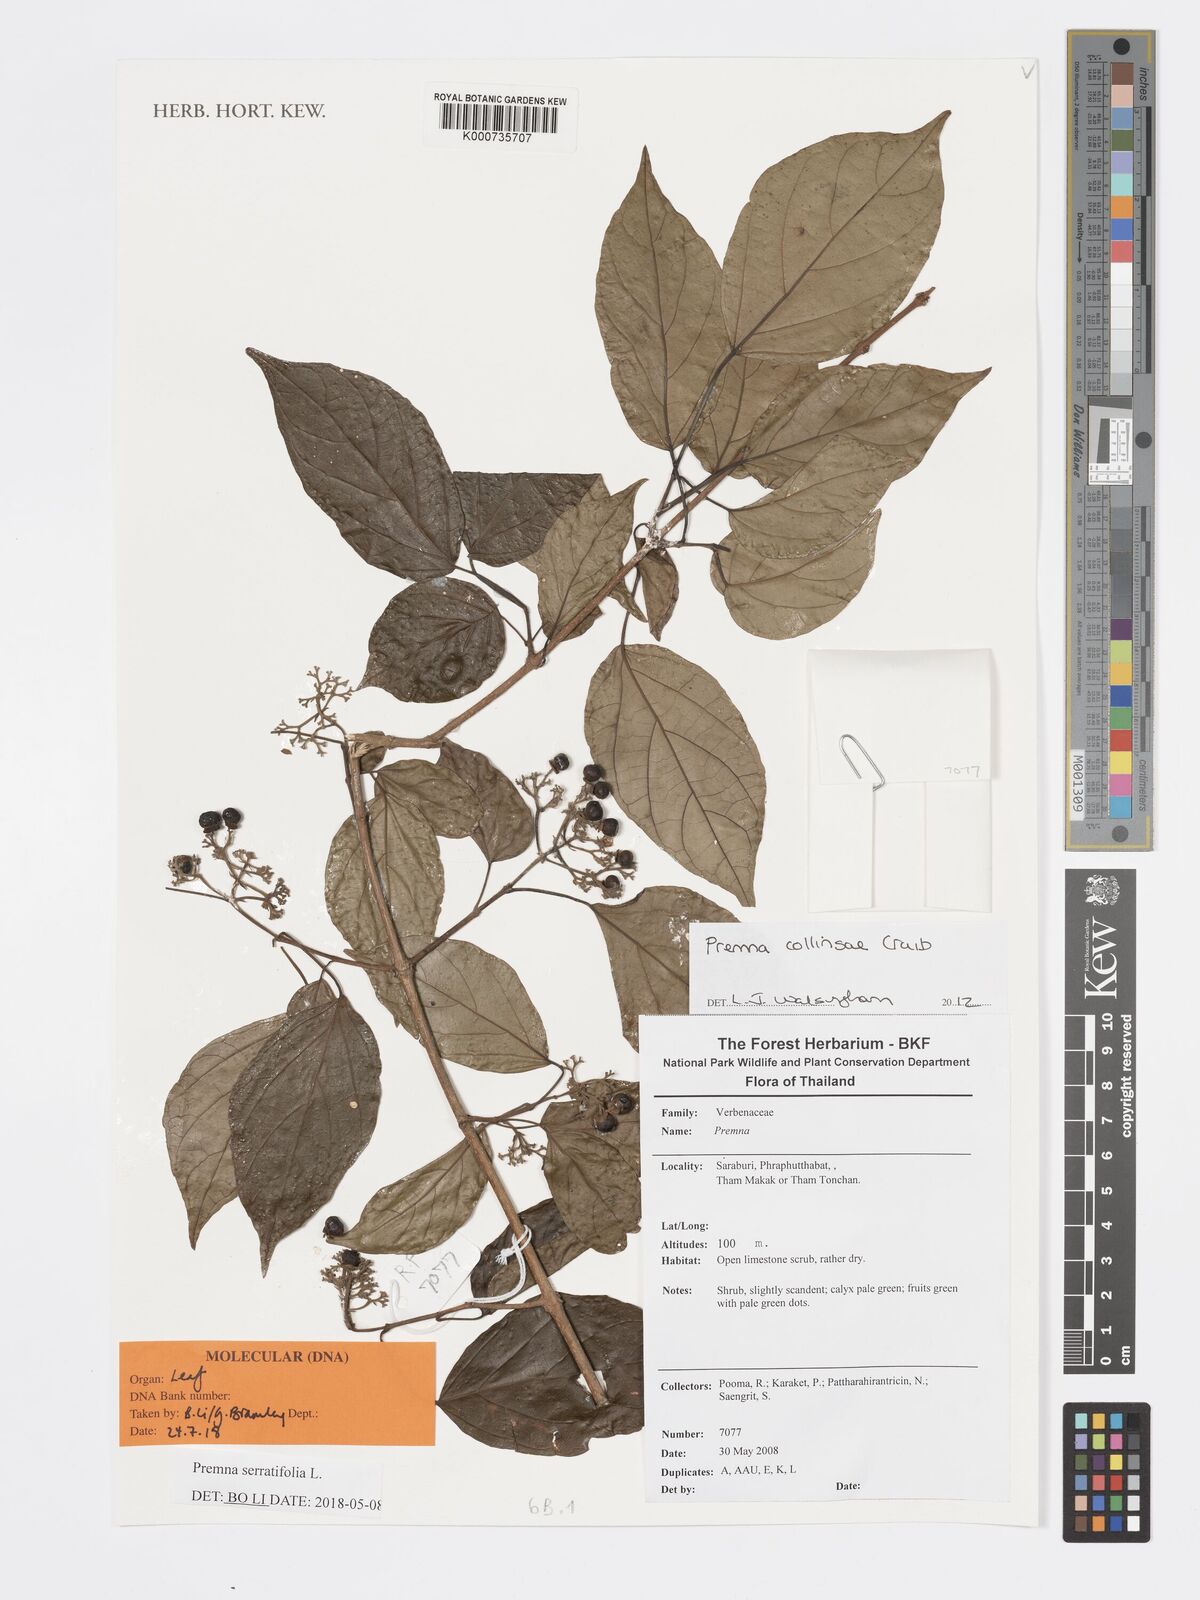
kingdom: Plantae
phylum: Tracheophyta
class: Magnoliopsida
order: Lamiales
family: Lamiaceae
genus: Premna
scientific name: Premna dubia
